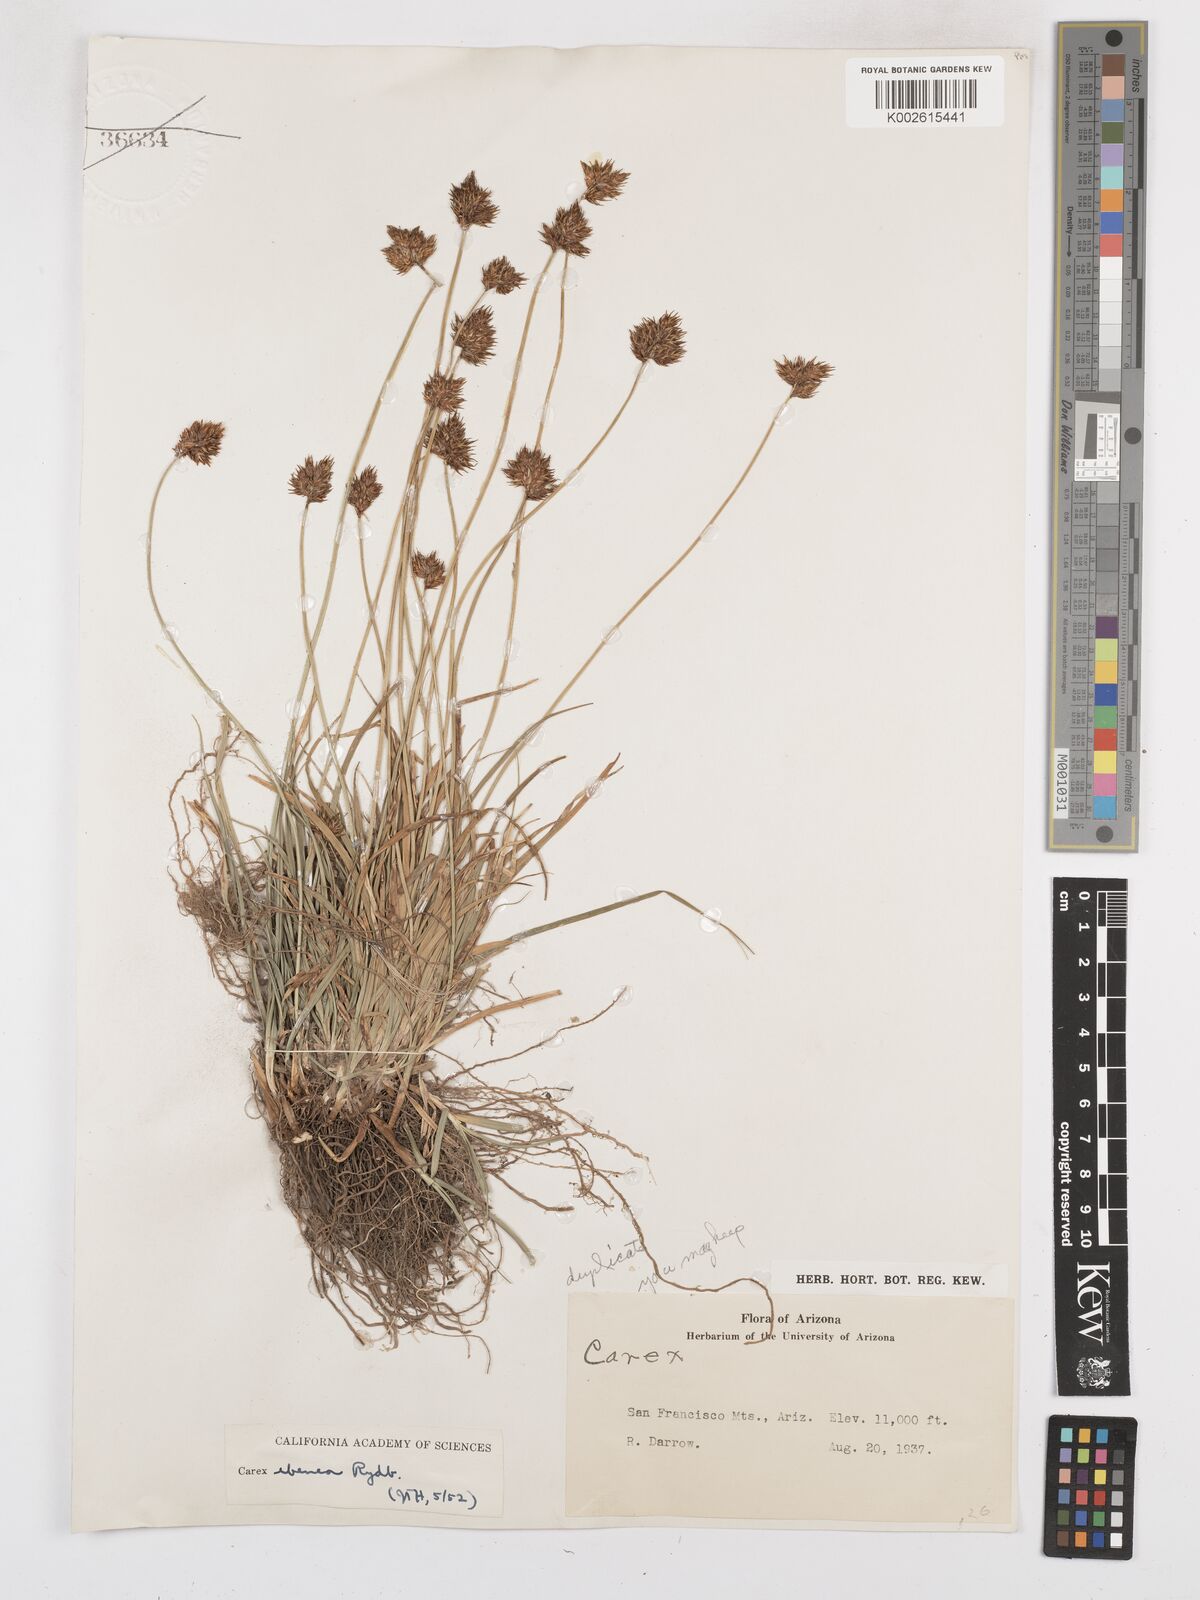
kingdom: Plantae
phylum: Tracheophyta
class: Liliopsida
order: Poales
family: Cyperaceae
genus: Carex
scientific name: Carex microptera
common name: Oval-headed sedge
